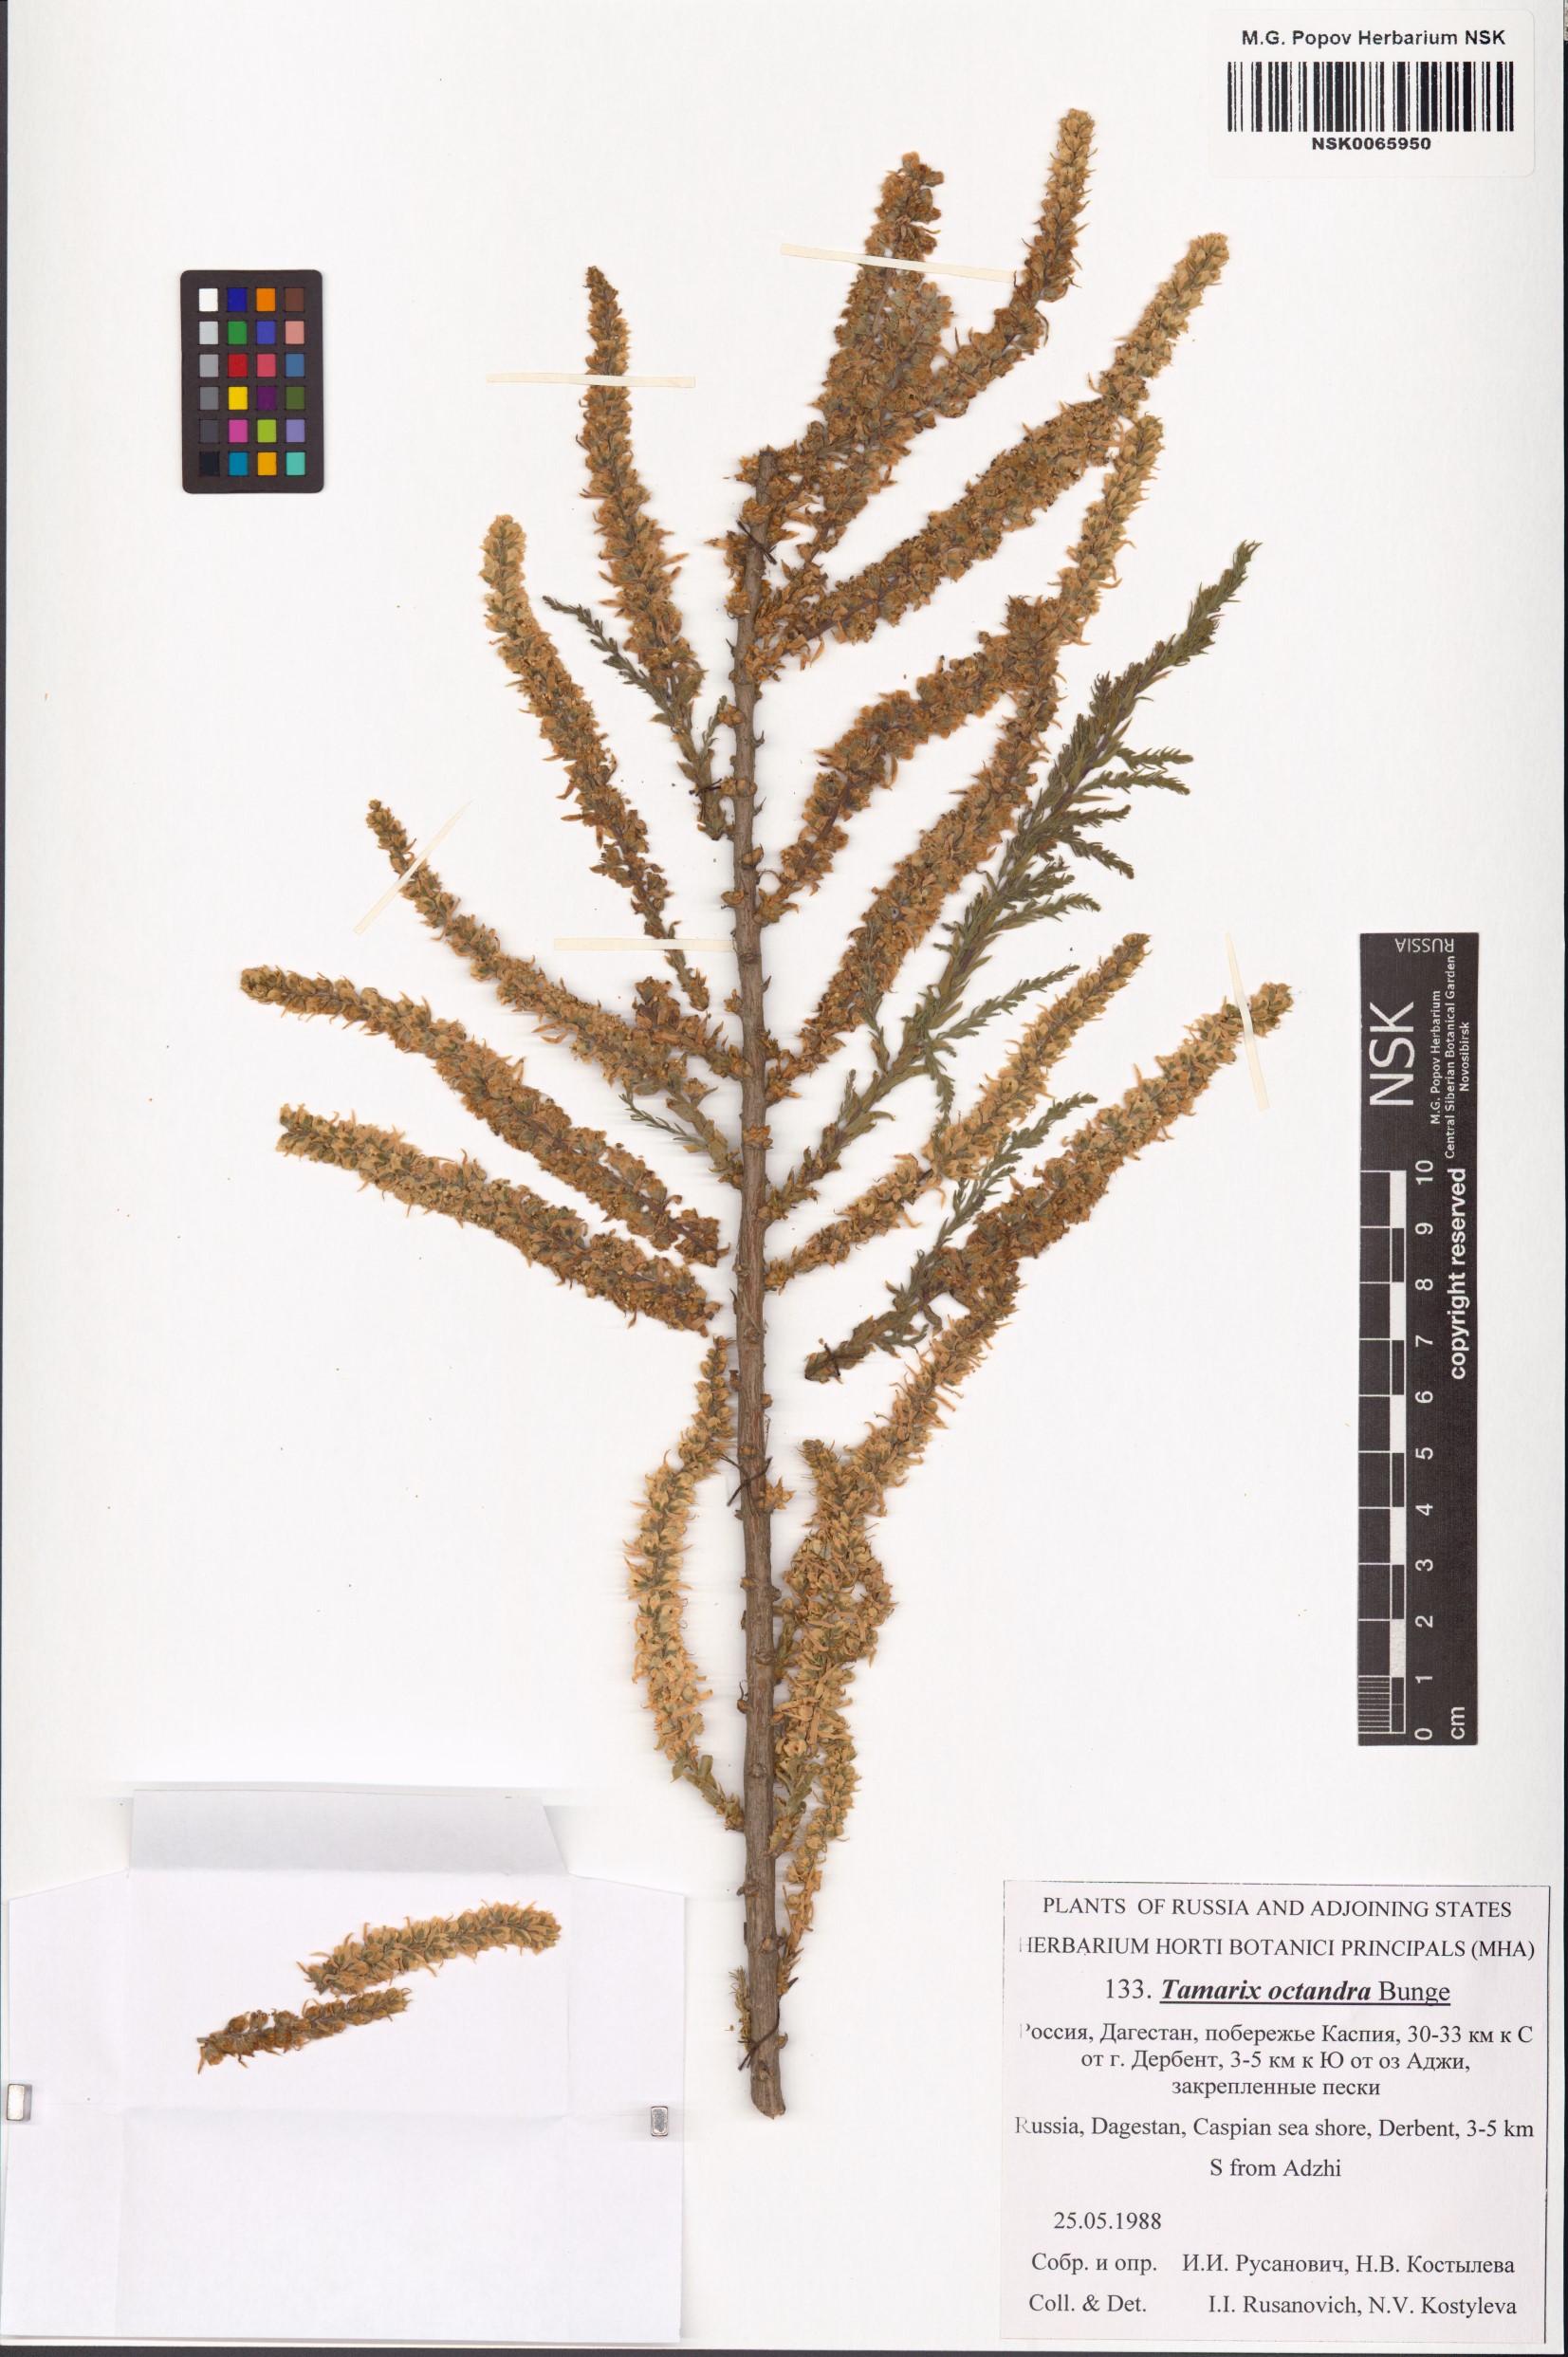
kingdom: Plantae
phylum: Tracheophyta
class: Magnoliopsida
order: Caryophyllales
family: Tamaricaceae
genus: Tamarix
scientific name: Tamarix octandra
